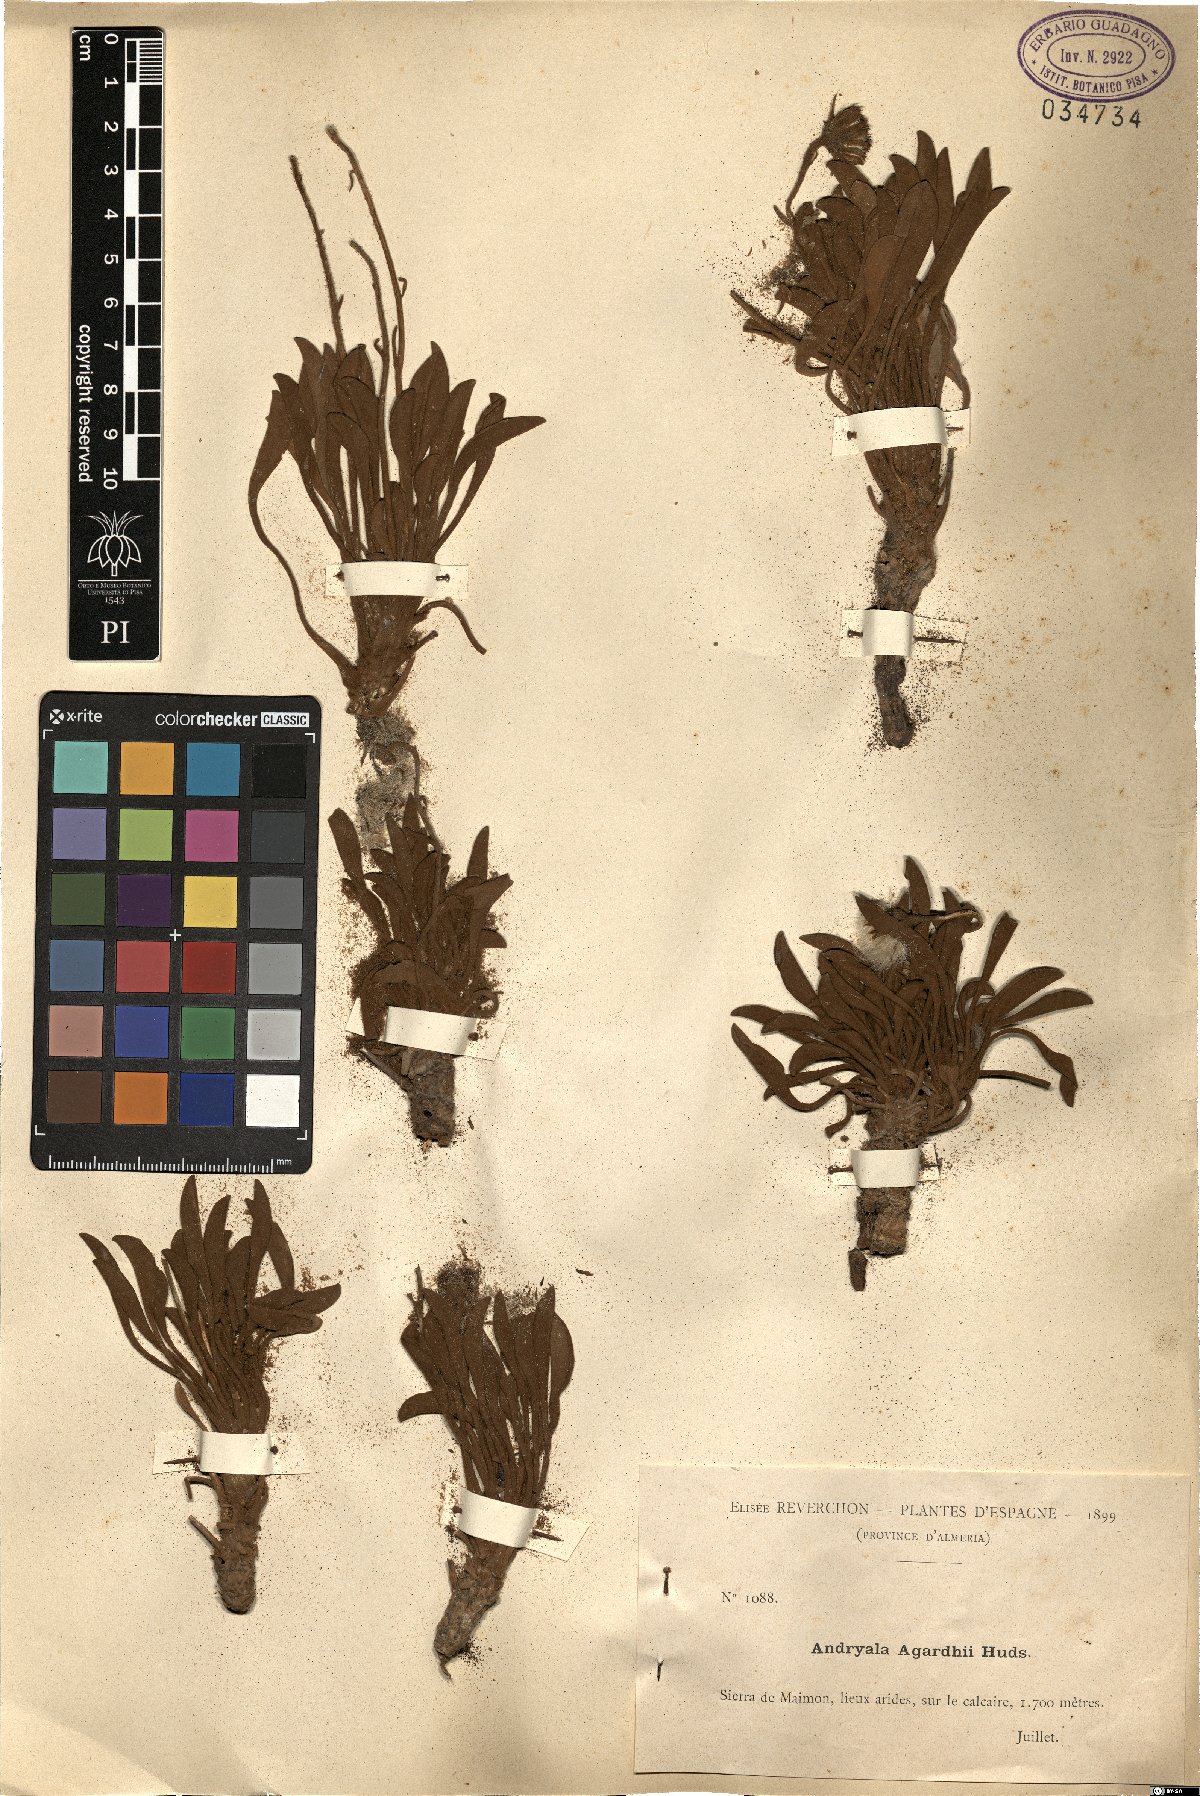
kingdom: Plantae
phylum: Tracheophyta
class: Magnoliopsida
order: Asterales
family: Asteraceae
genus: Andryala
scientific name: Andryala agardhii
